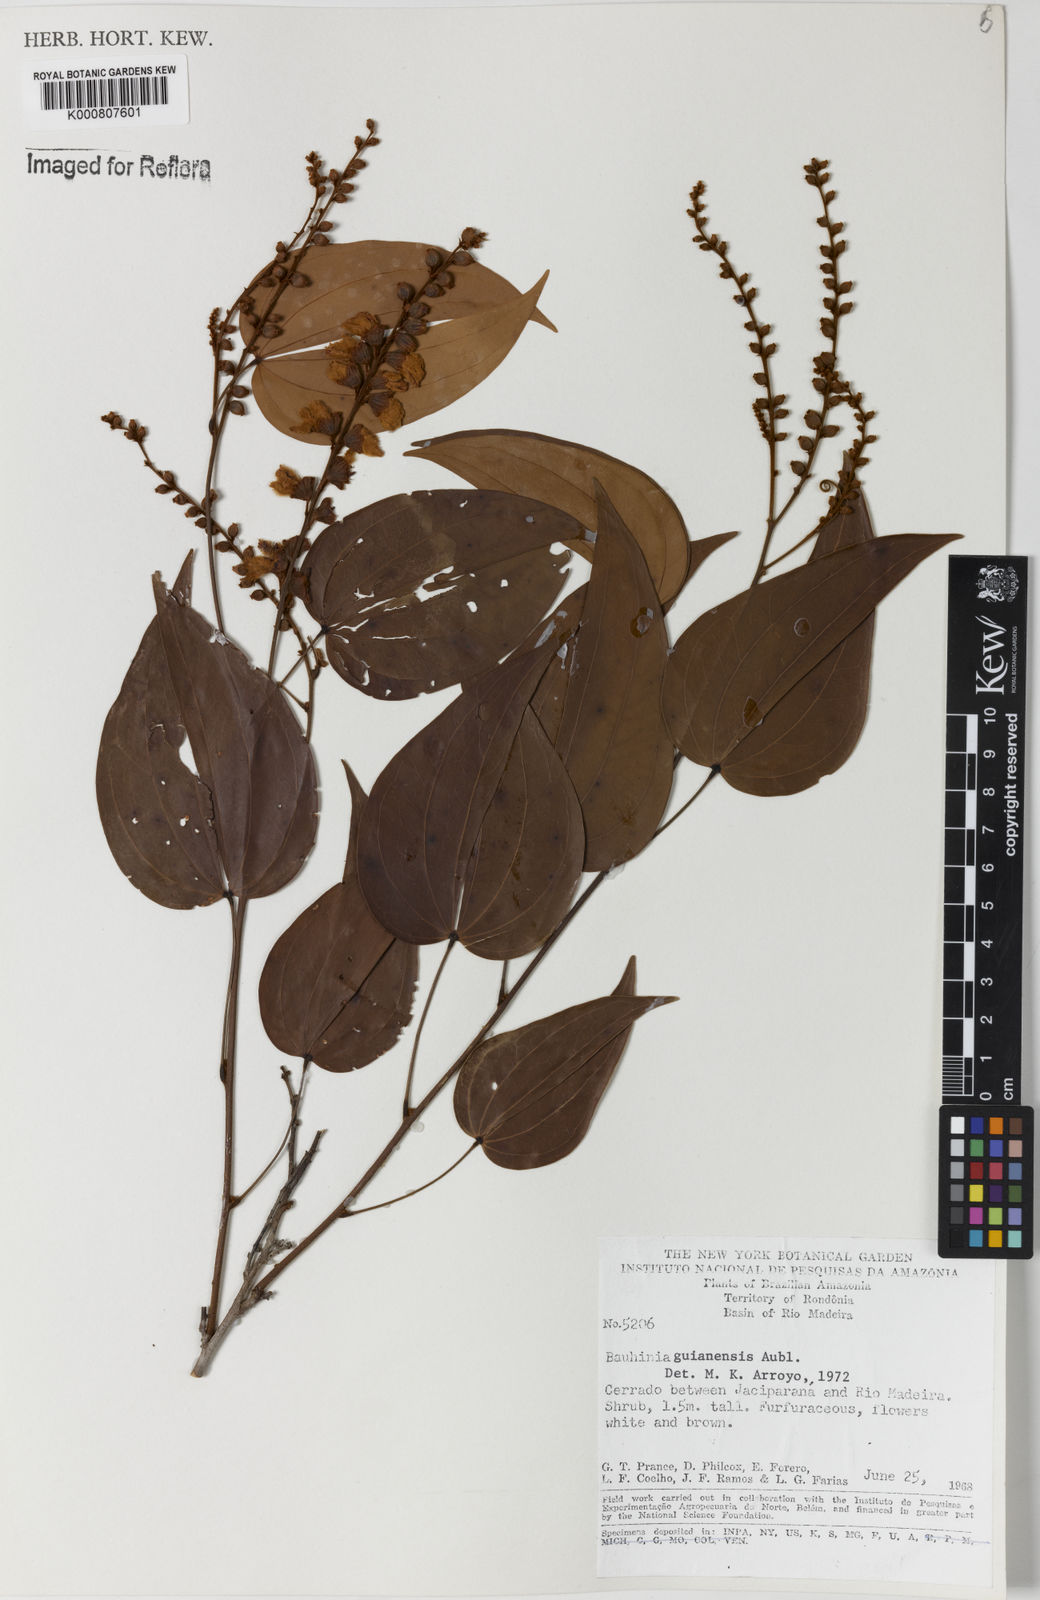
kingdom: Plantae
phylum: Tracheophyta
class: Magnoliopsida
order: Fabales
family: Fabaceae
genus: Schnella
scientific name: Schnella guianensis
